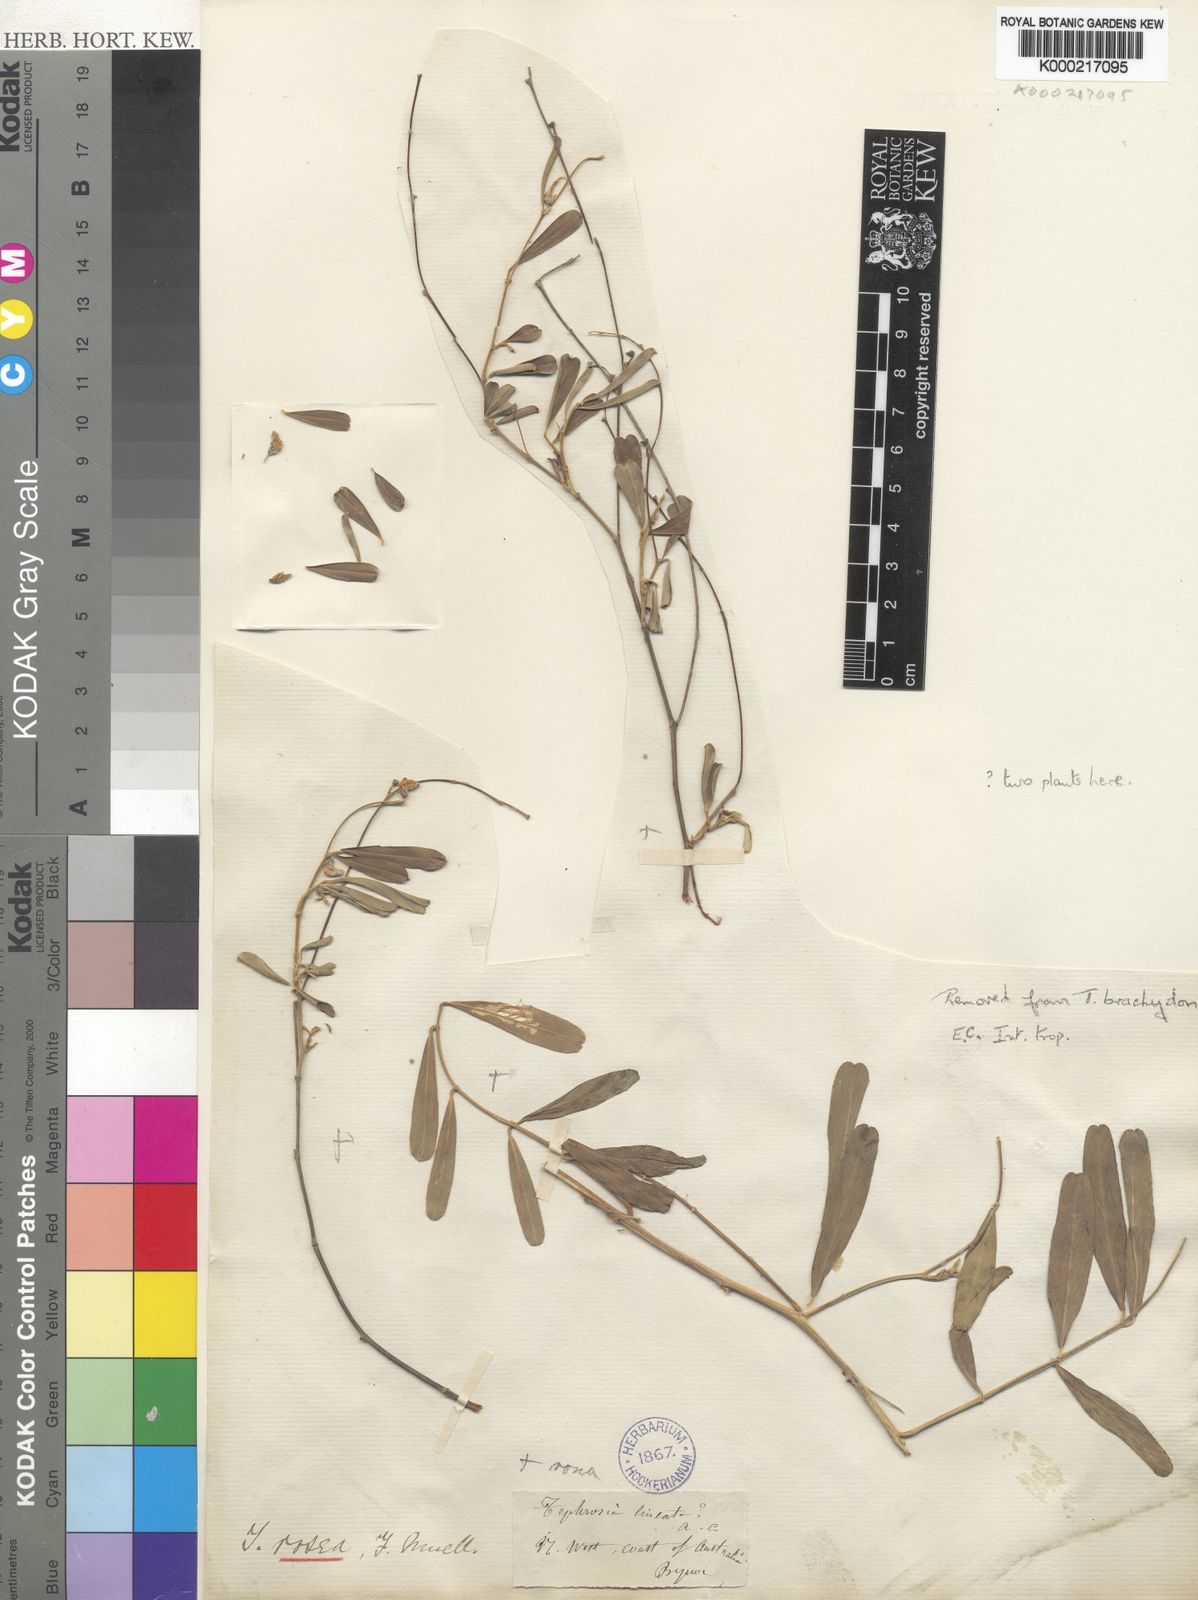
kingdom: Plantae
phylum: Tracheophyta
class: Magnoliopsida
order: Fabales
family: Fabaceae
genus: Tephrosia
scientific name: Tephrosia rosea
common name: Flinders river-poison
